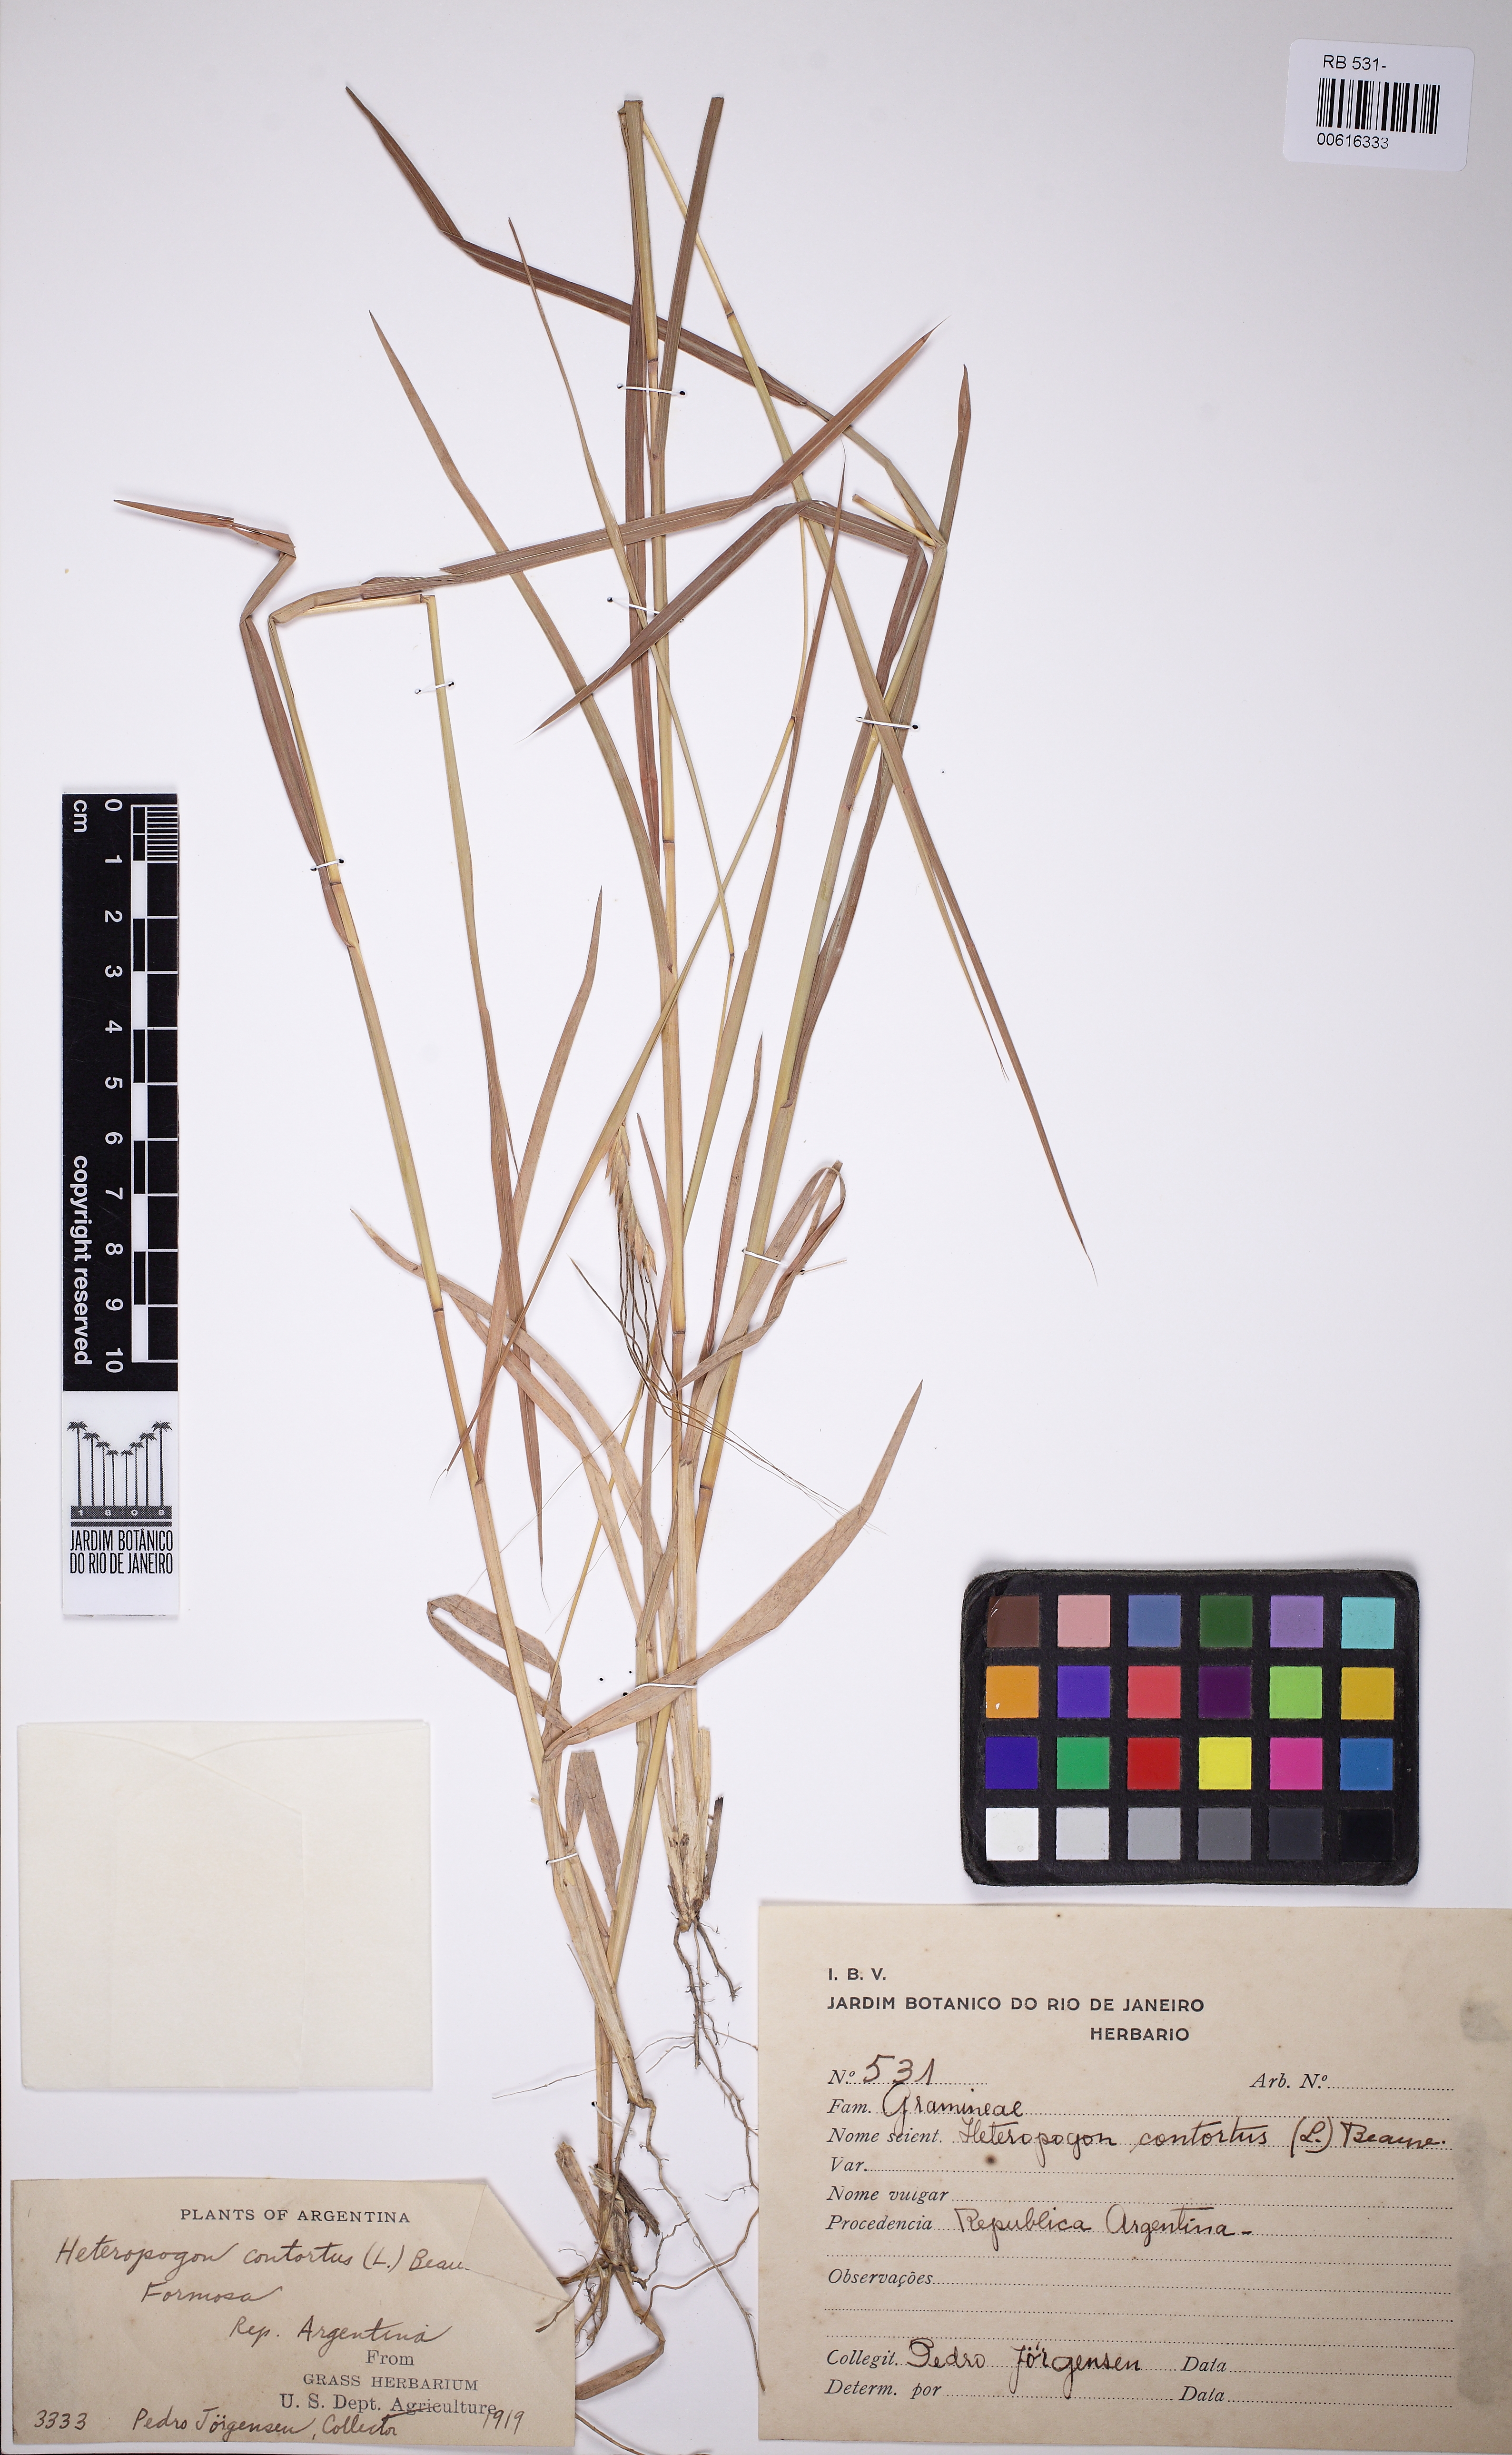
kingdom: Plantae
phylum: Tracheophyta
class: Liliopsida
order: Poales
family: Poaceae
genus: Heteropogon
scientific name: Heteropogon contortus
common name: Tanglehead
